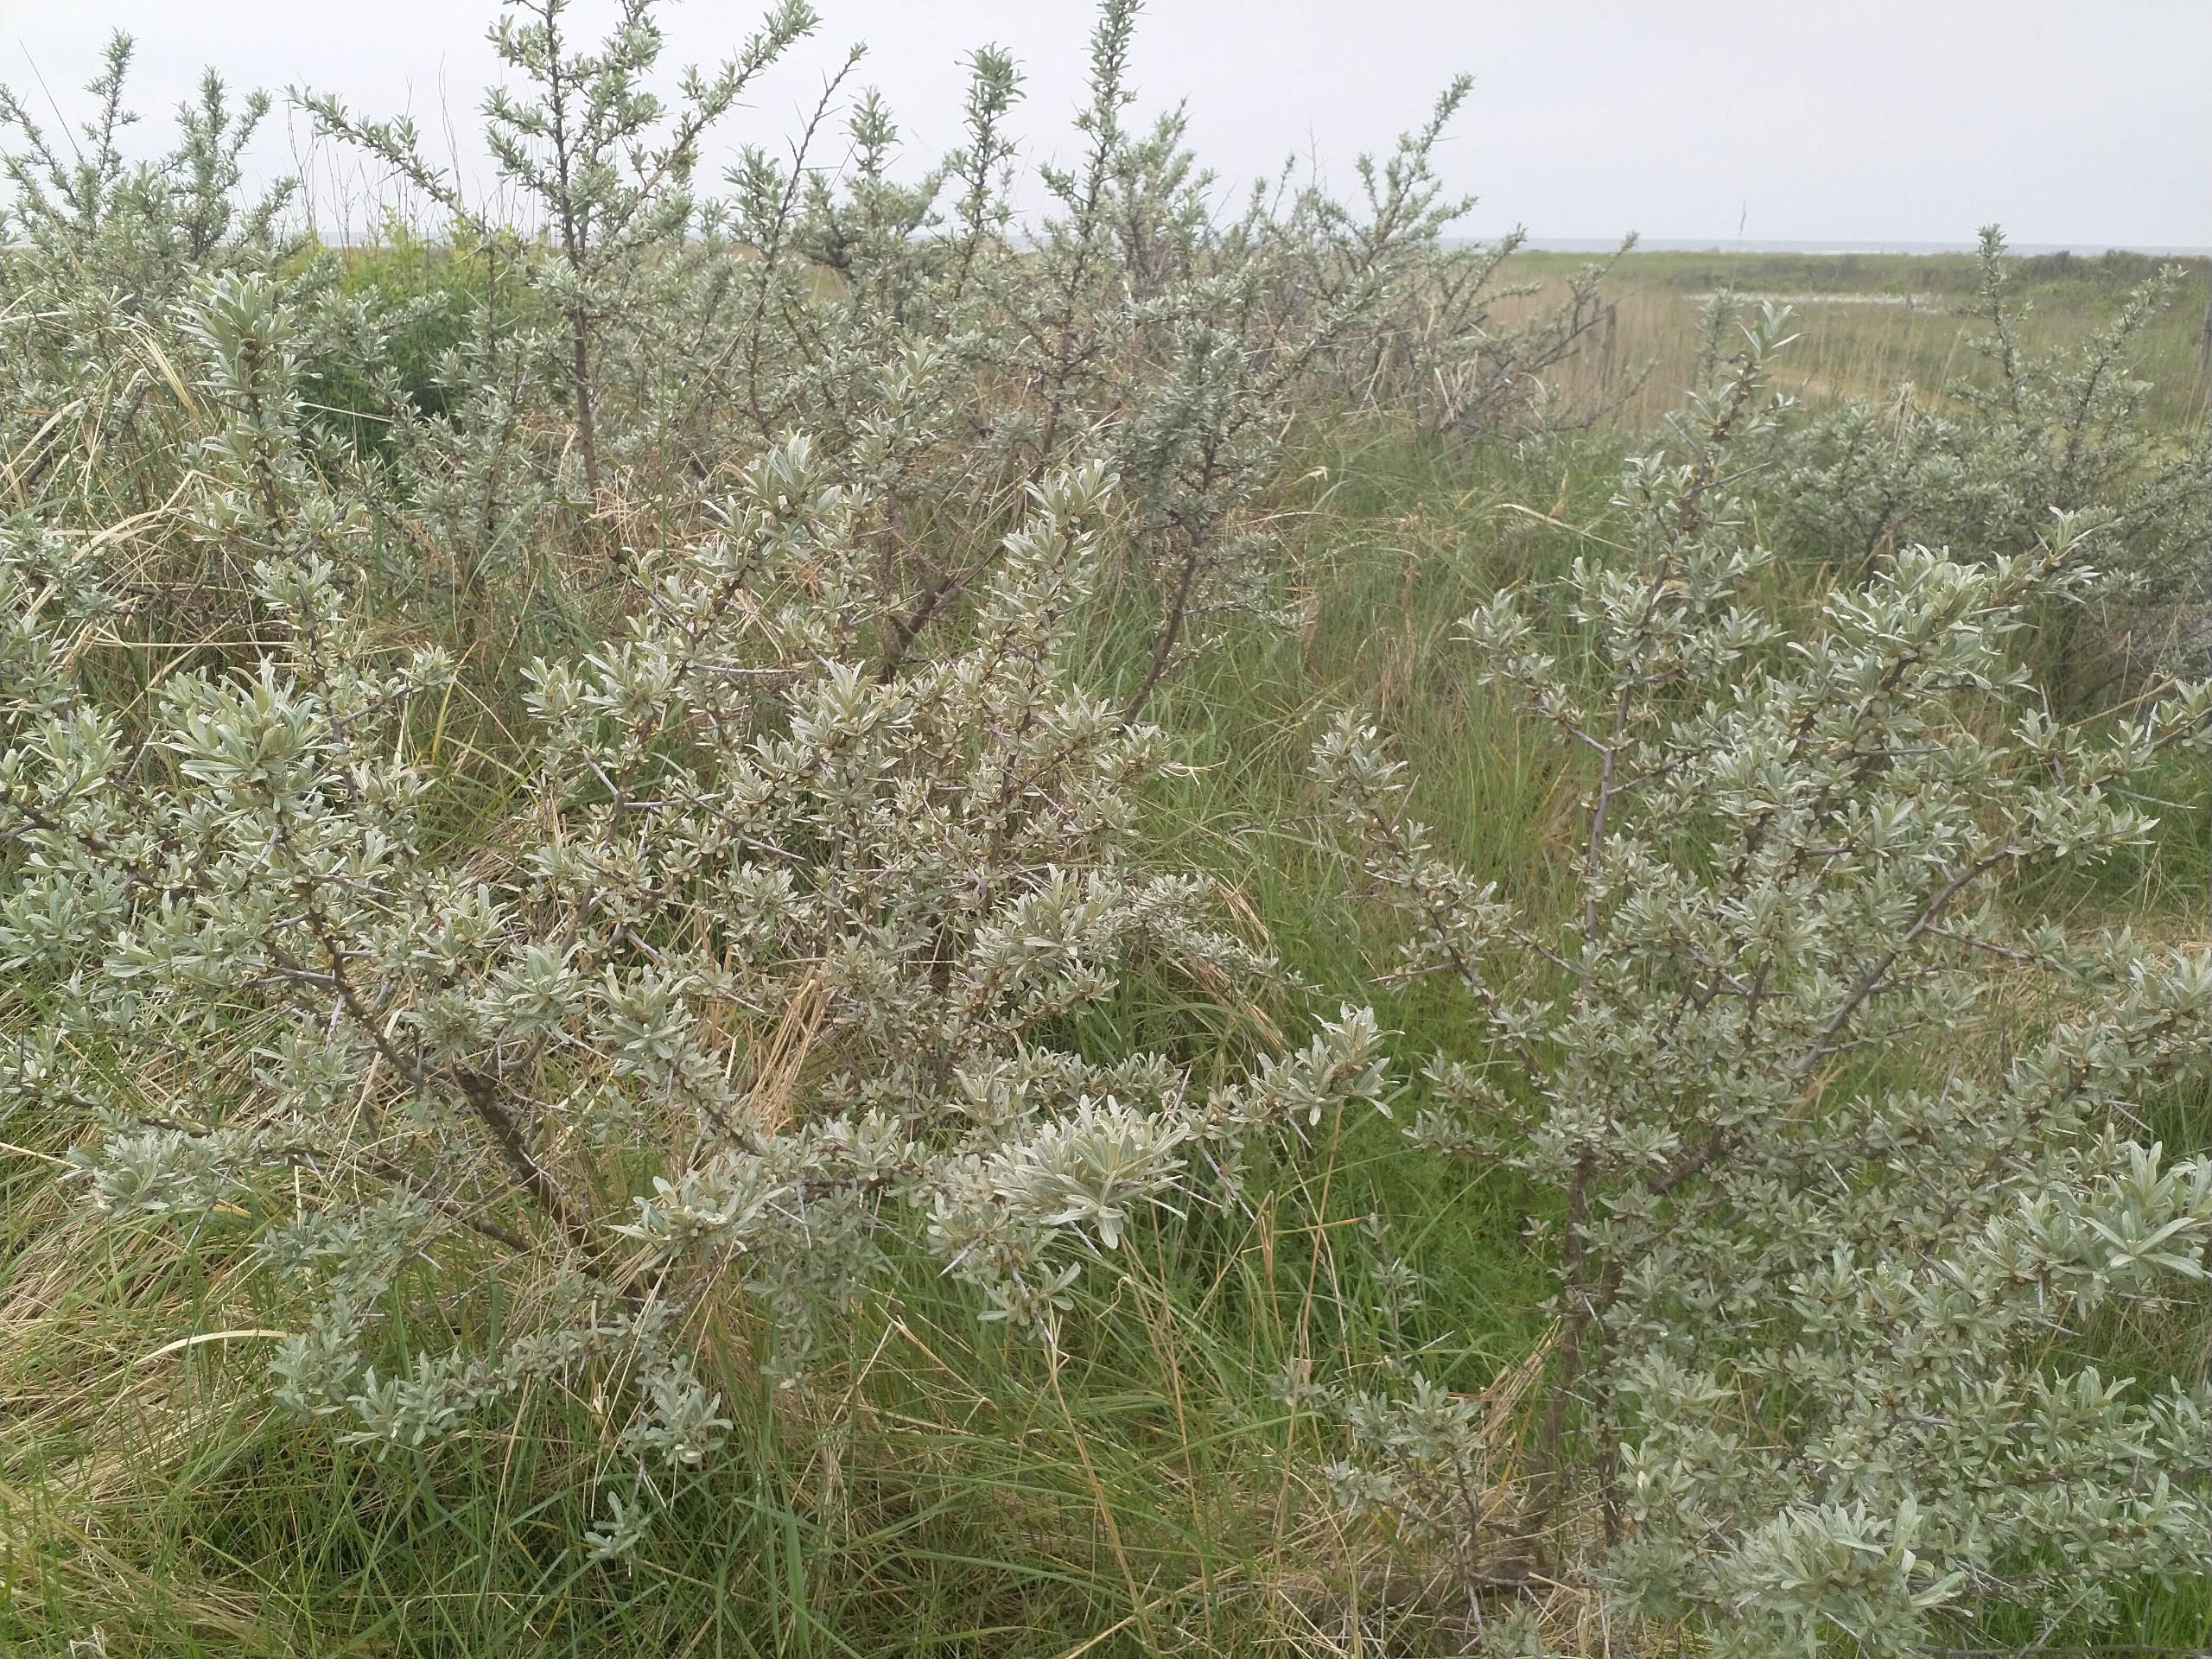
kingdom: Plantae
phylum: Tracheophyta
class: Magnoliopsida
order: Rosales
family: Elaeagnaceae
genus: Hippophae
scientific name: Hippophae
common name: Havtornslægten
